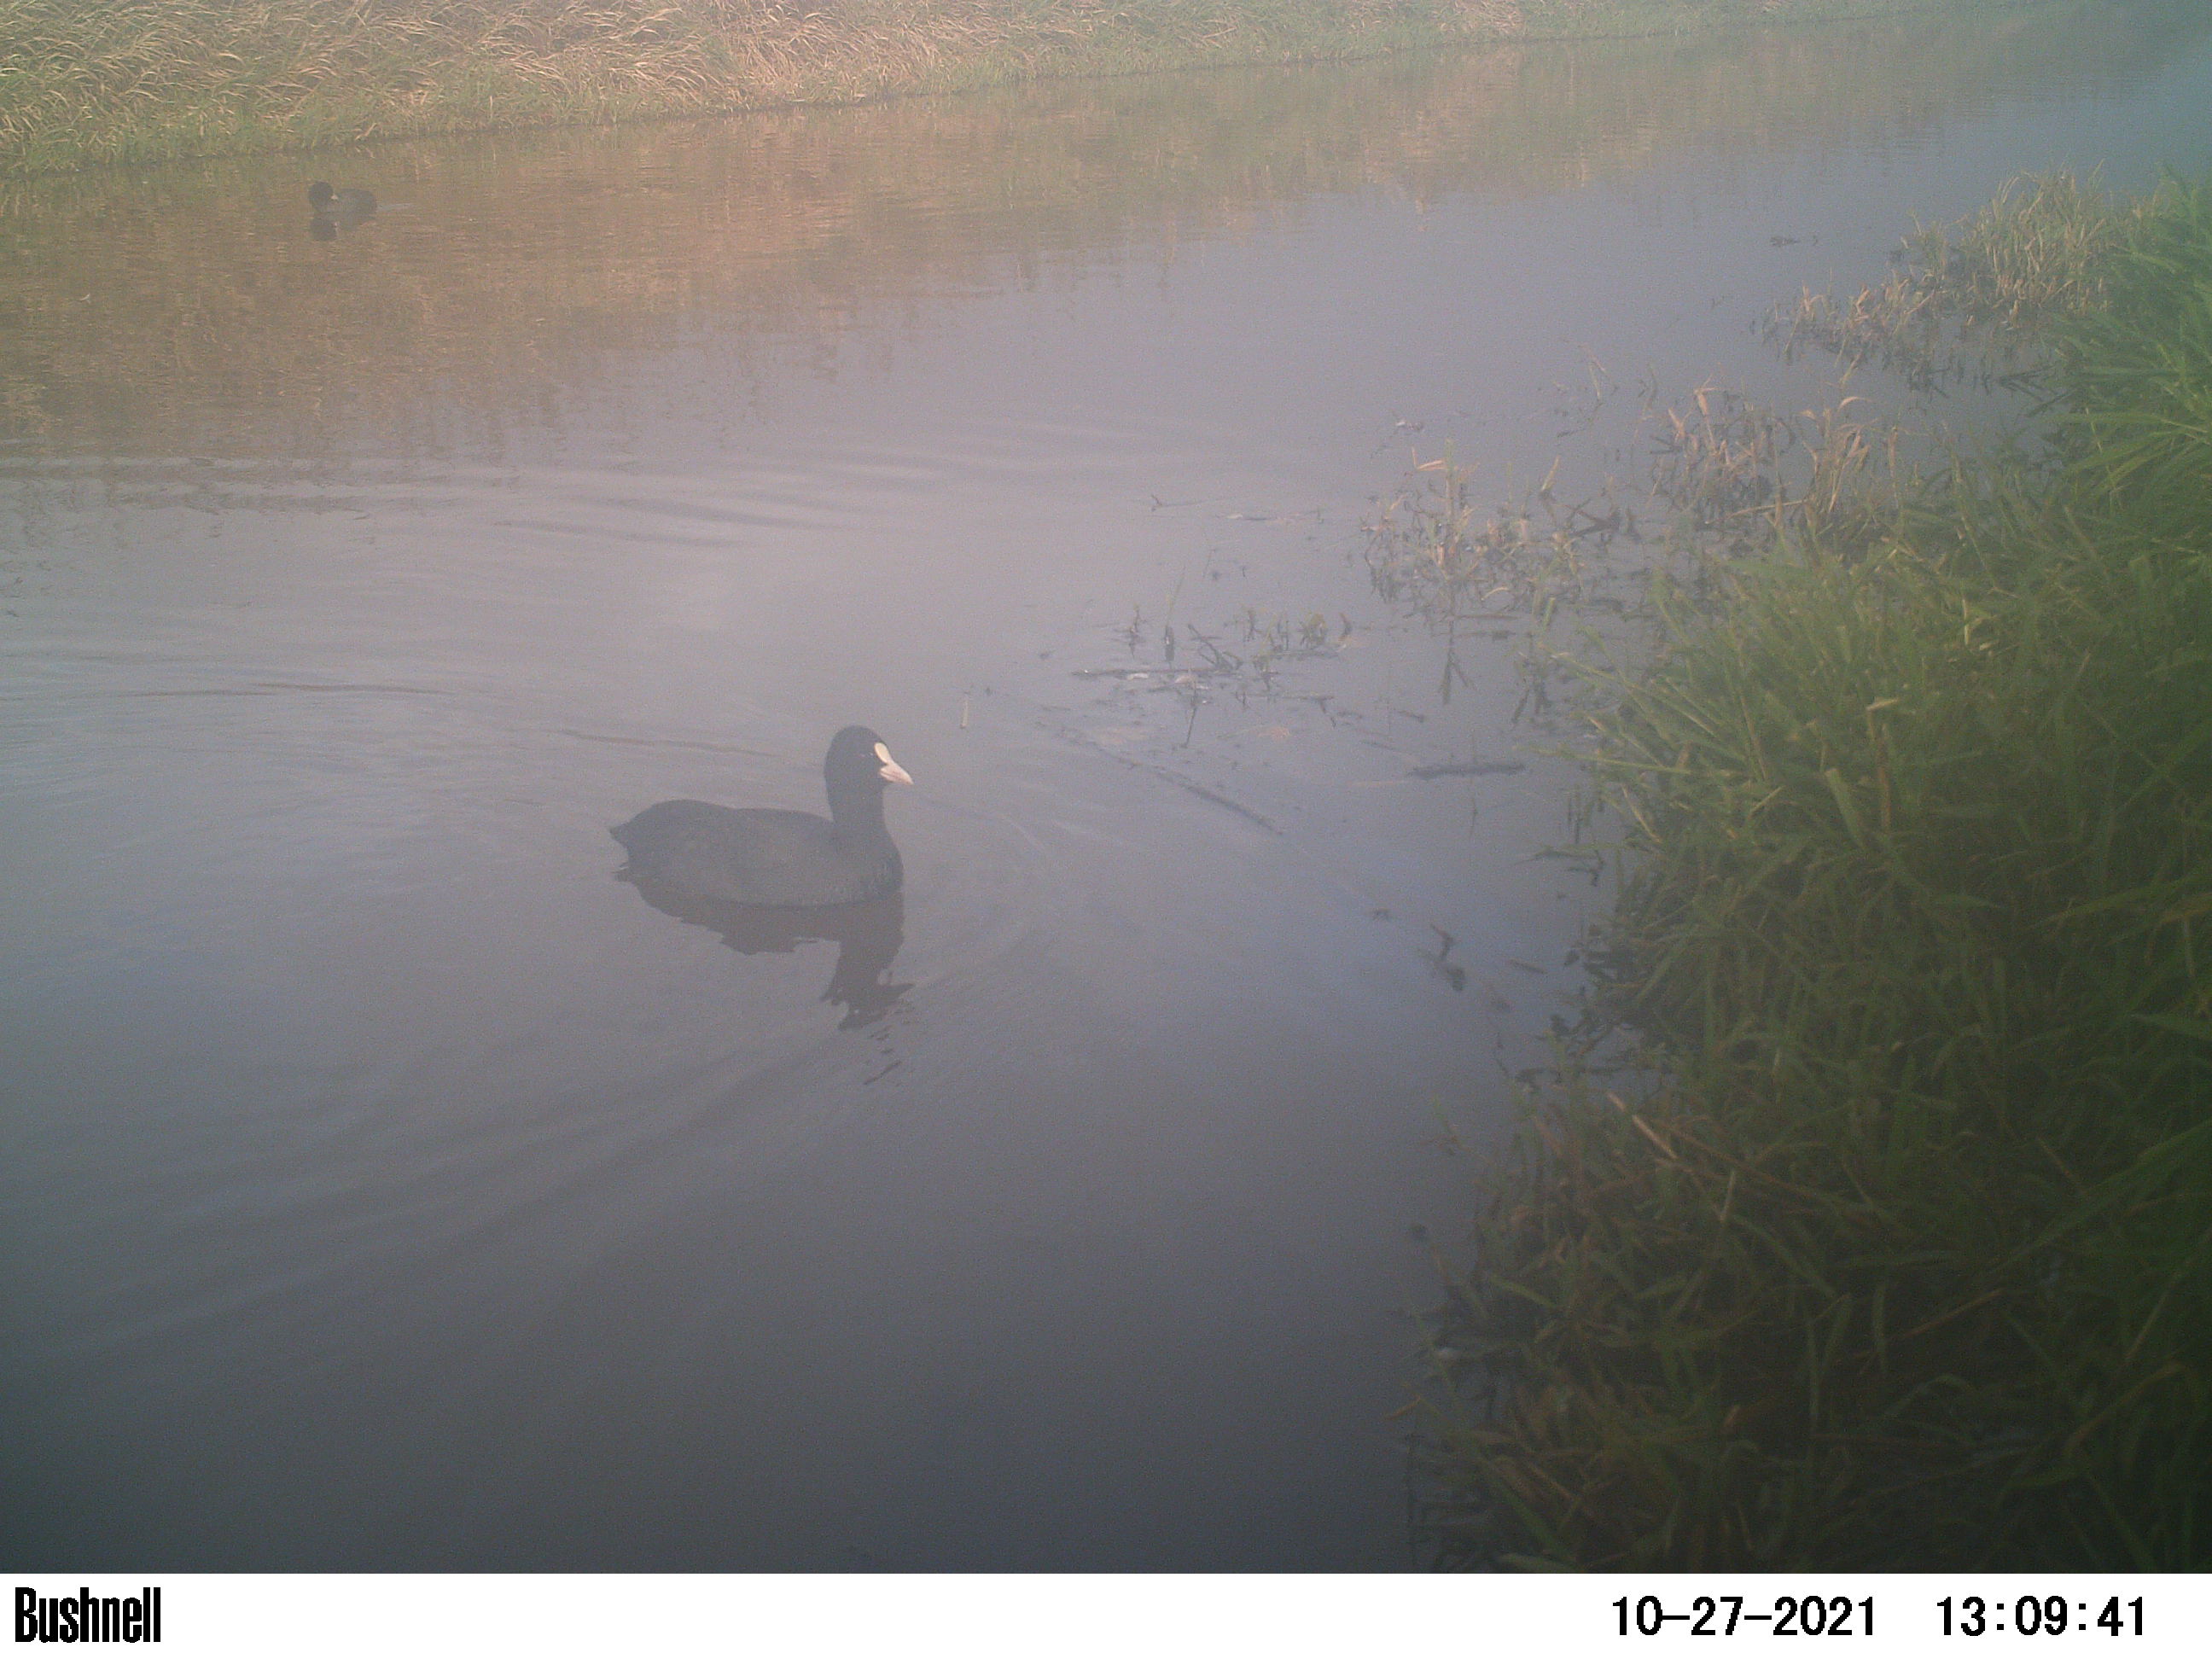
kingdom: Animalia
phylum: Chordata
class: Aves
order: Gruiformes
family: Rallidae
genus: Fulica
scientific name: Fulica atra
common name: Eurasian coot
